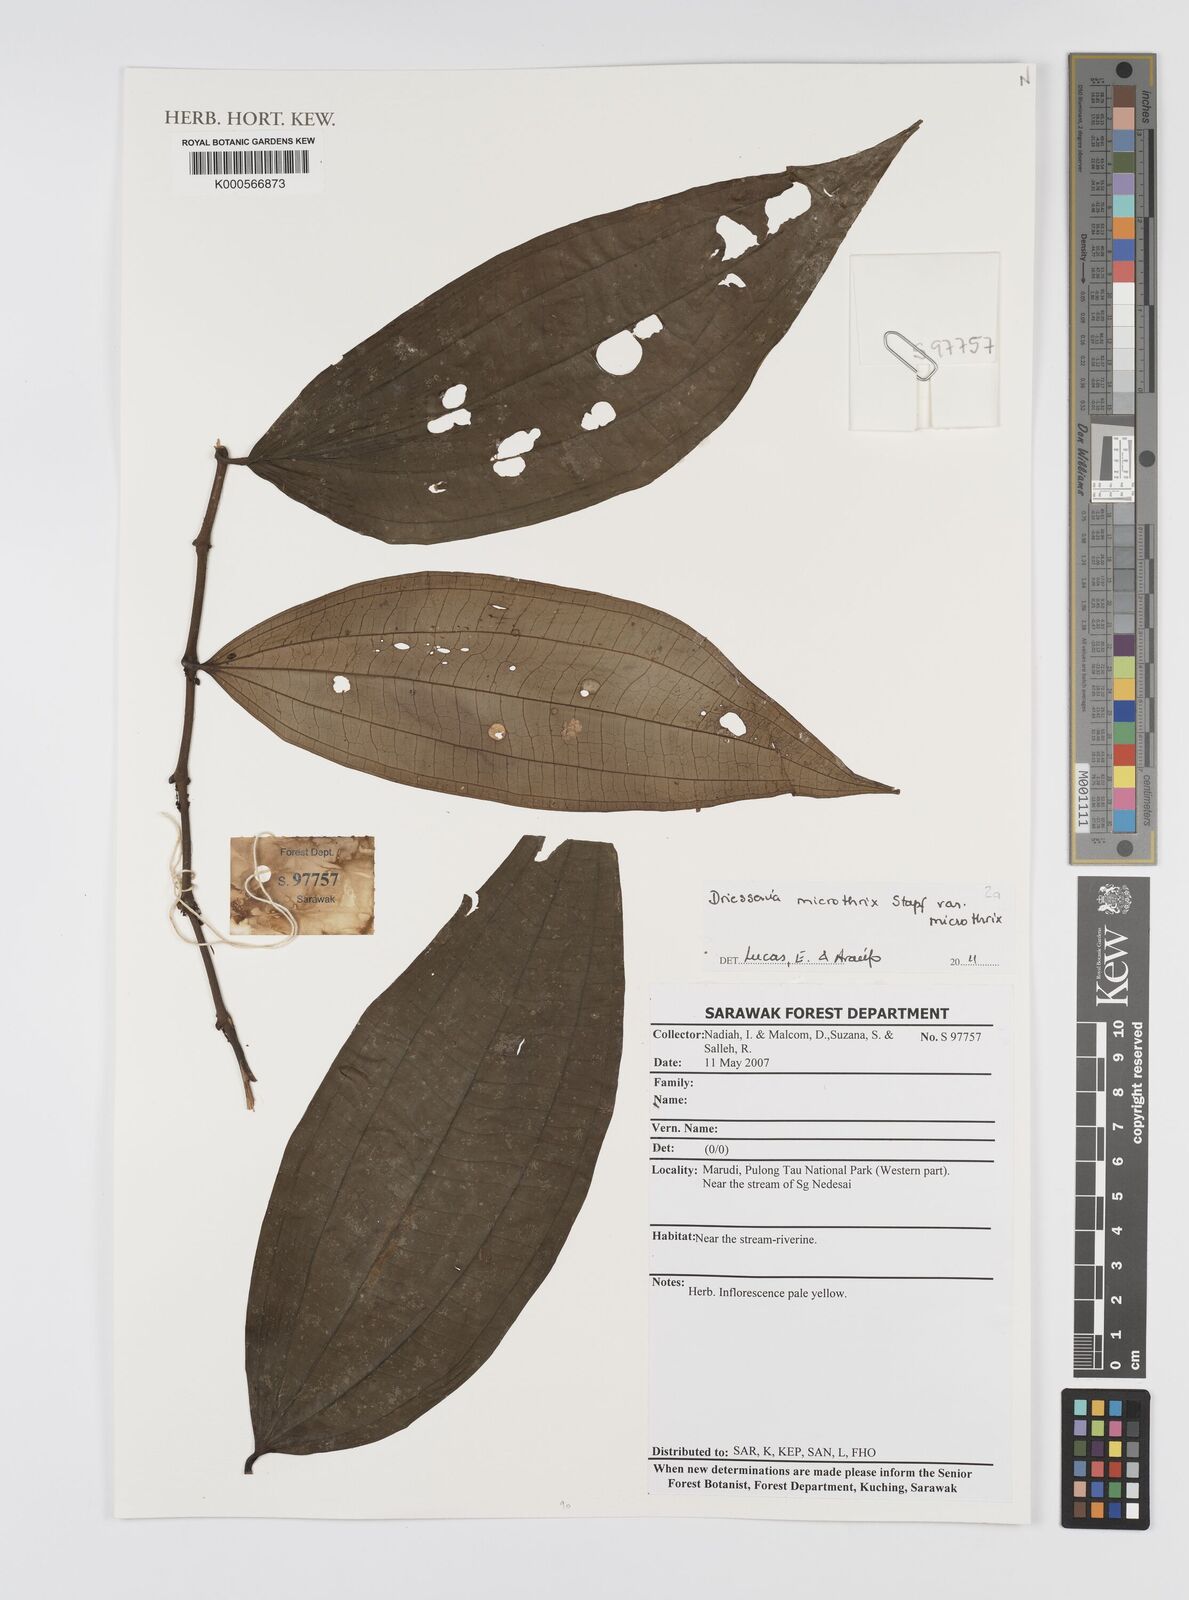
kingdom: Plantae
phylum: Tracheophyta
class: Magnoliopsida
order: Myrtales
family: Melastomataceae
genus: Driessenia
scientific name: Driessenia microthrix
